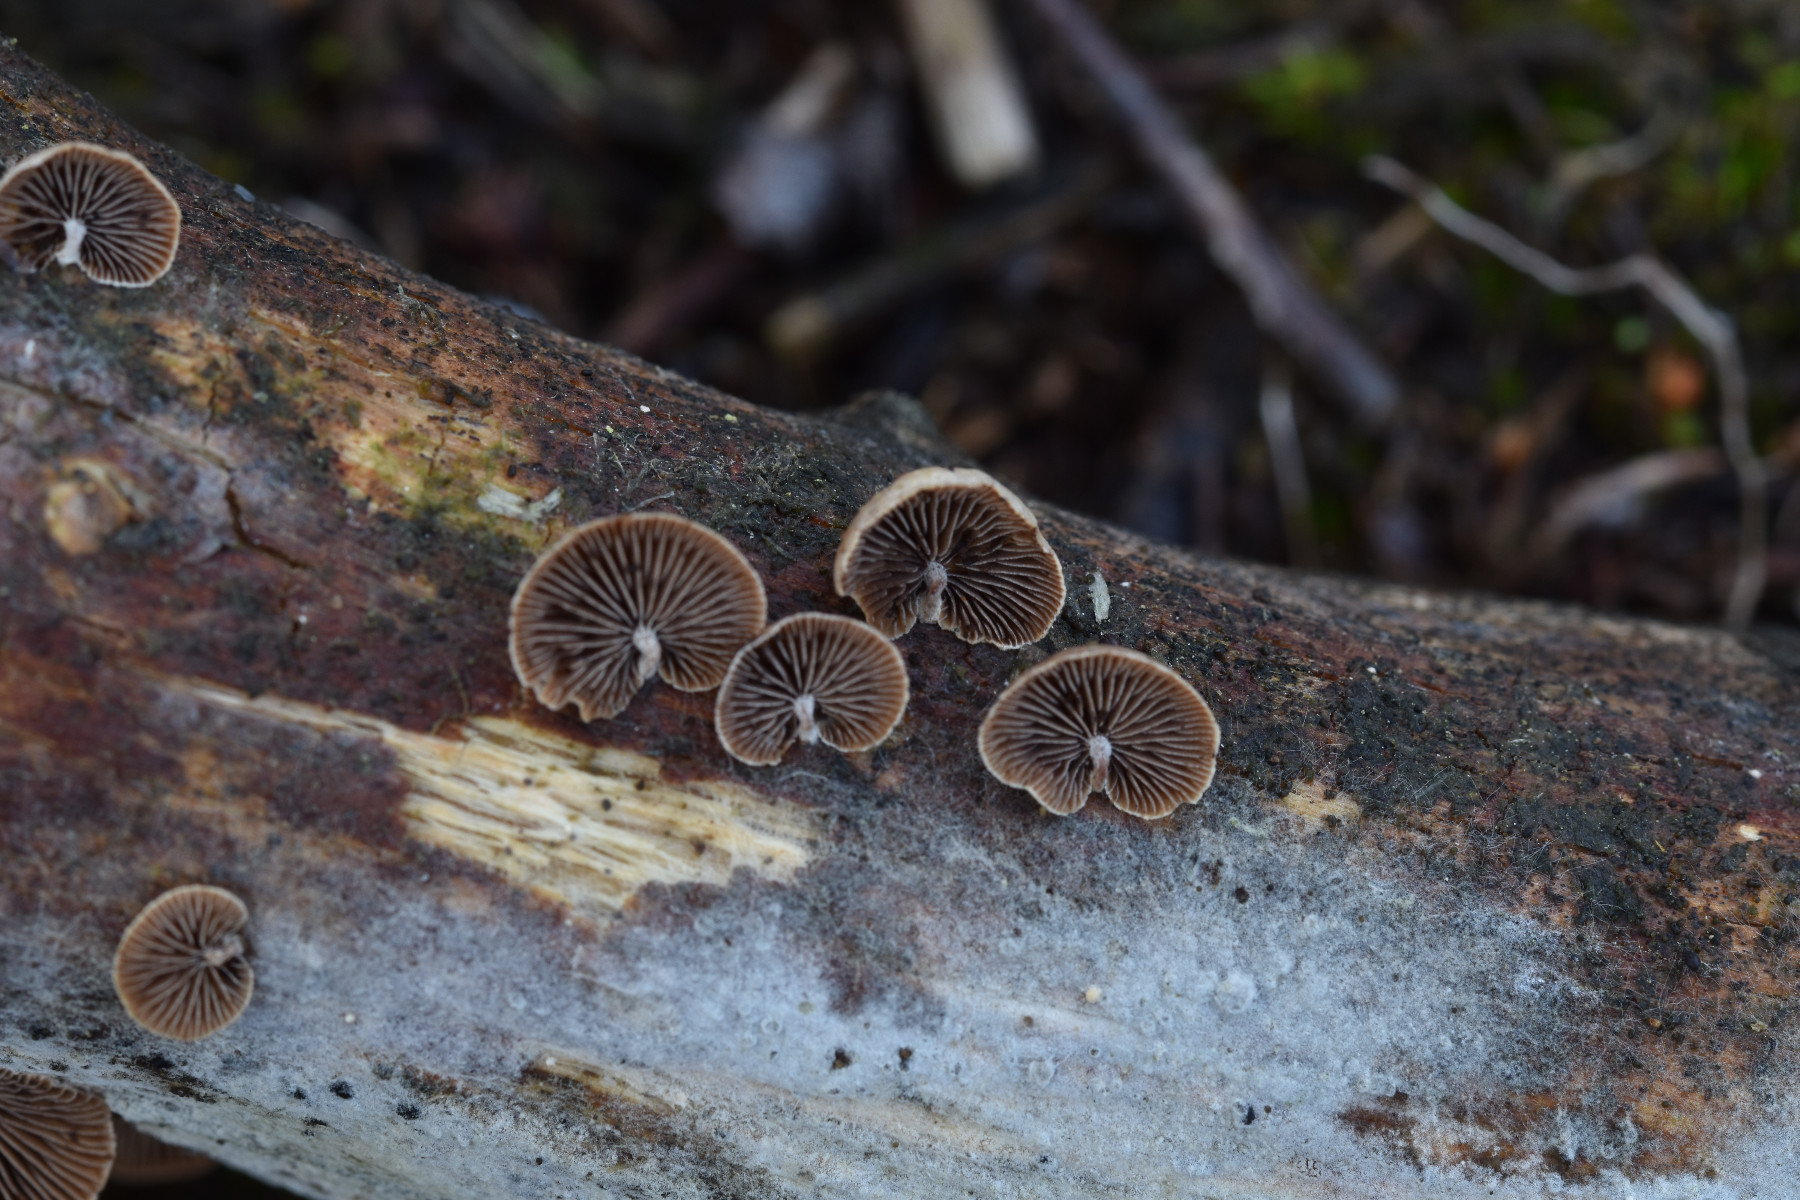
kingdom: Fungi
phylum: Basidiomycota
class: Agaricomycetes
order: Agaricales
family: Strophariaceae
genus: Deconica
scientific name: Deconica horizontalis
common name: ved-stråhat
